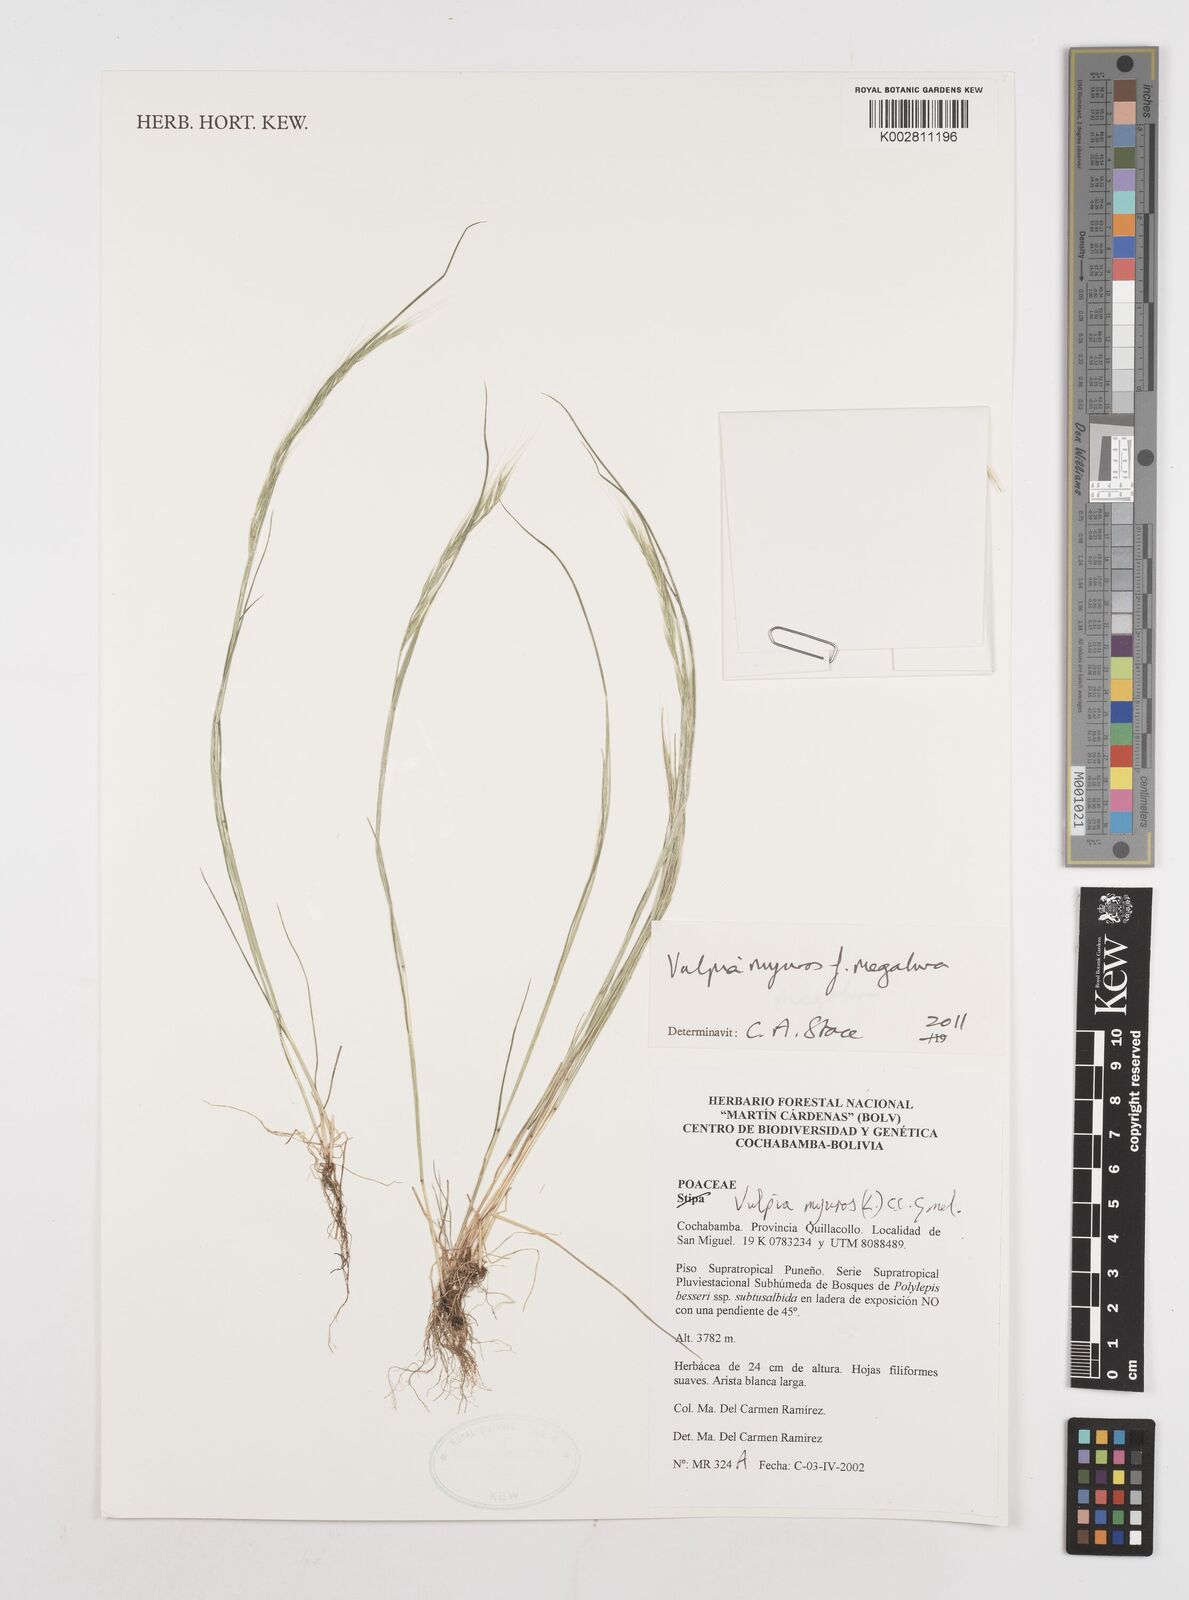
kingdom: Plantae
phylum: Tracheophyta
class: Liliopsida
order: Poales
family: Poaceae
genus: Festuca
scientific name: Festuca myuros
